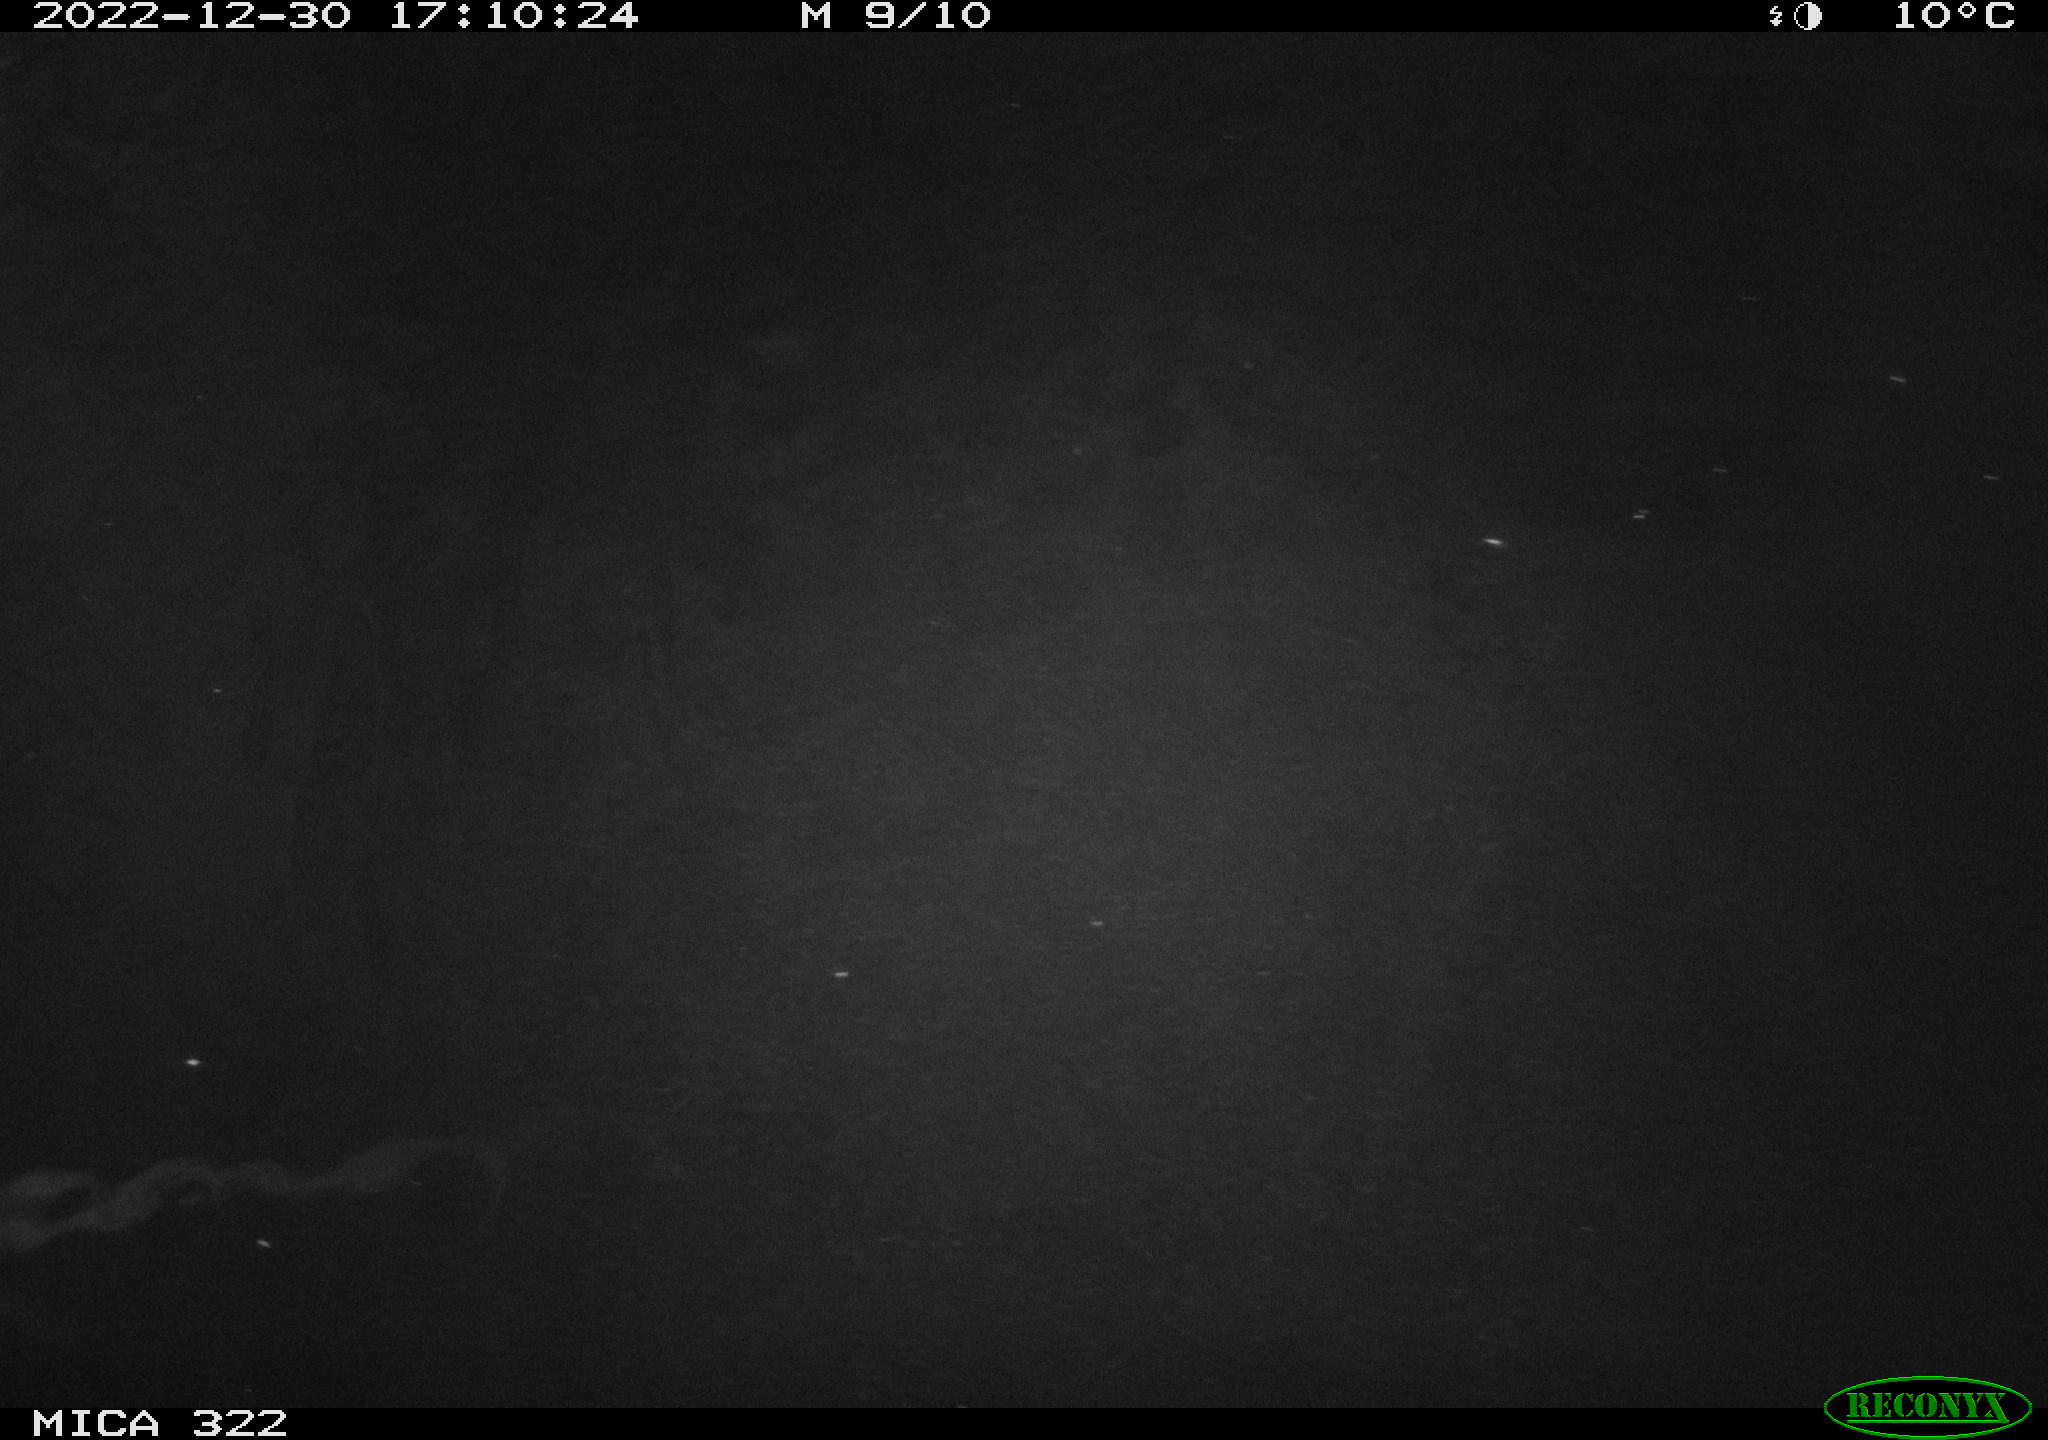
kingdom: Animalia
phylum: Chordata
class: Aves
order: Gruiformes
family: Rallidae
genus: Gallinula
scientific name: Gallinula chloropus
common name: Common moorhen
